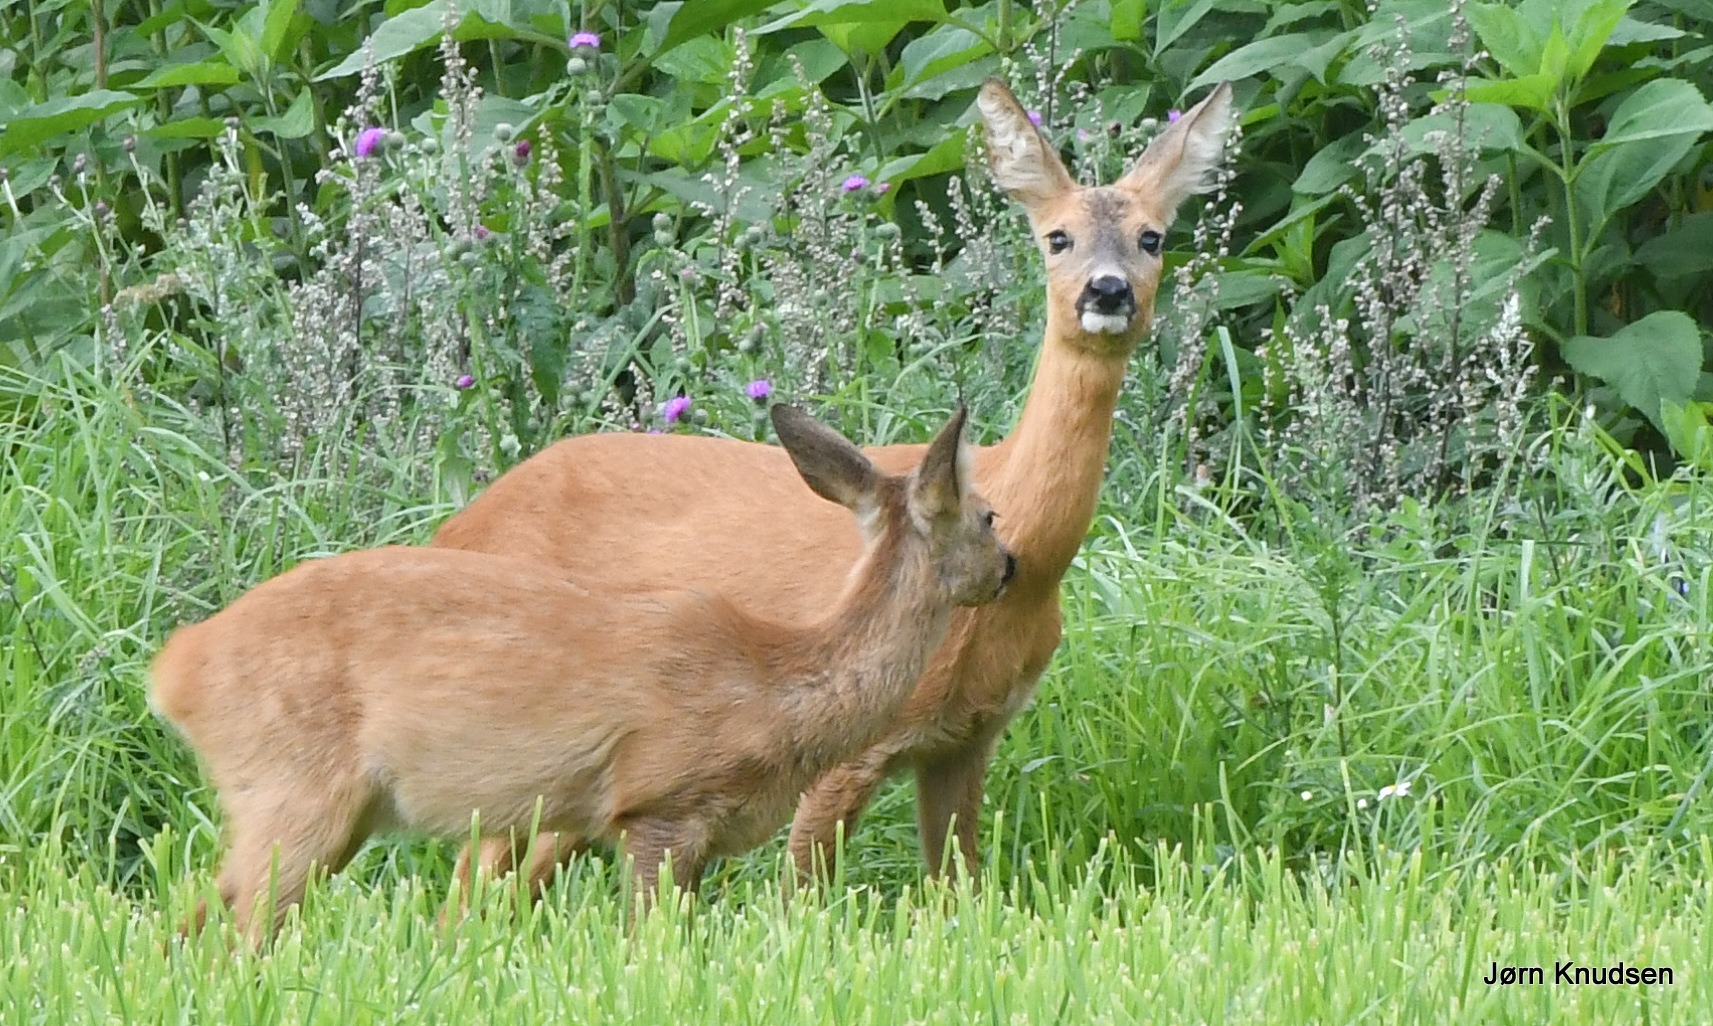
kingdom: Animalia
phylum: Chordata
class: Mammalia
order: Artiodactyla
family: Cervidae
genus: Capreolus
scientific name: Capreolus capreolus
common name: Rådyr
